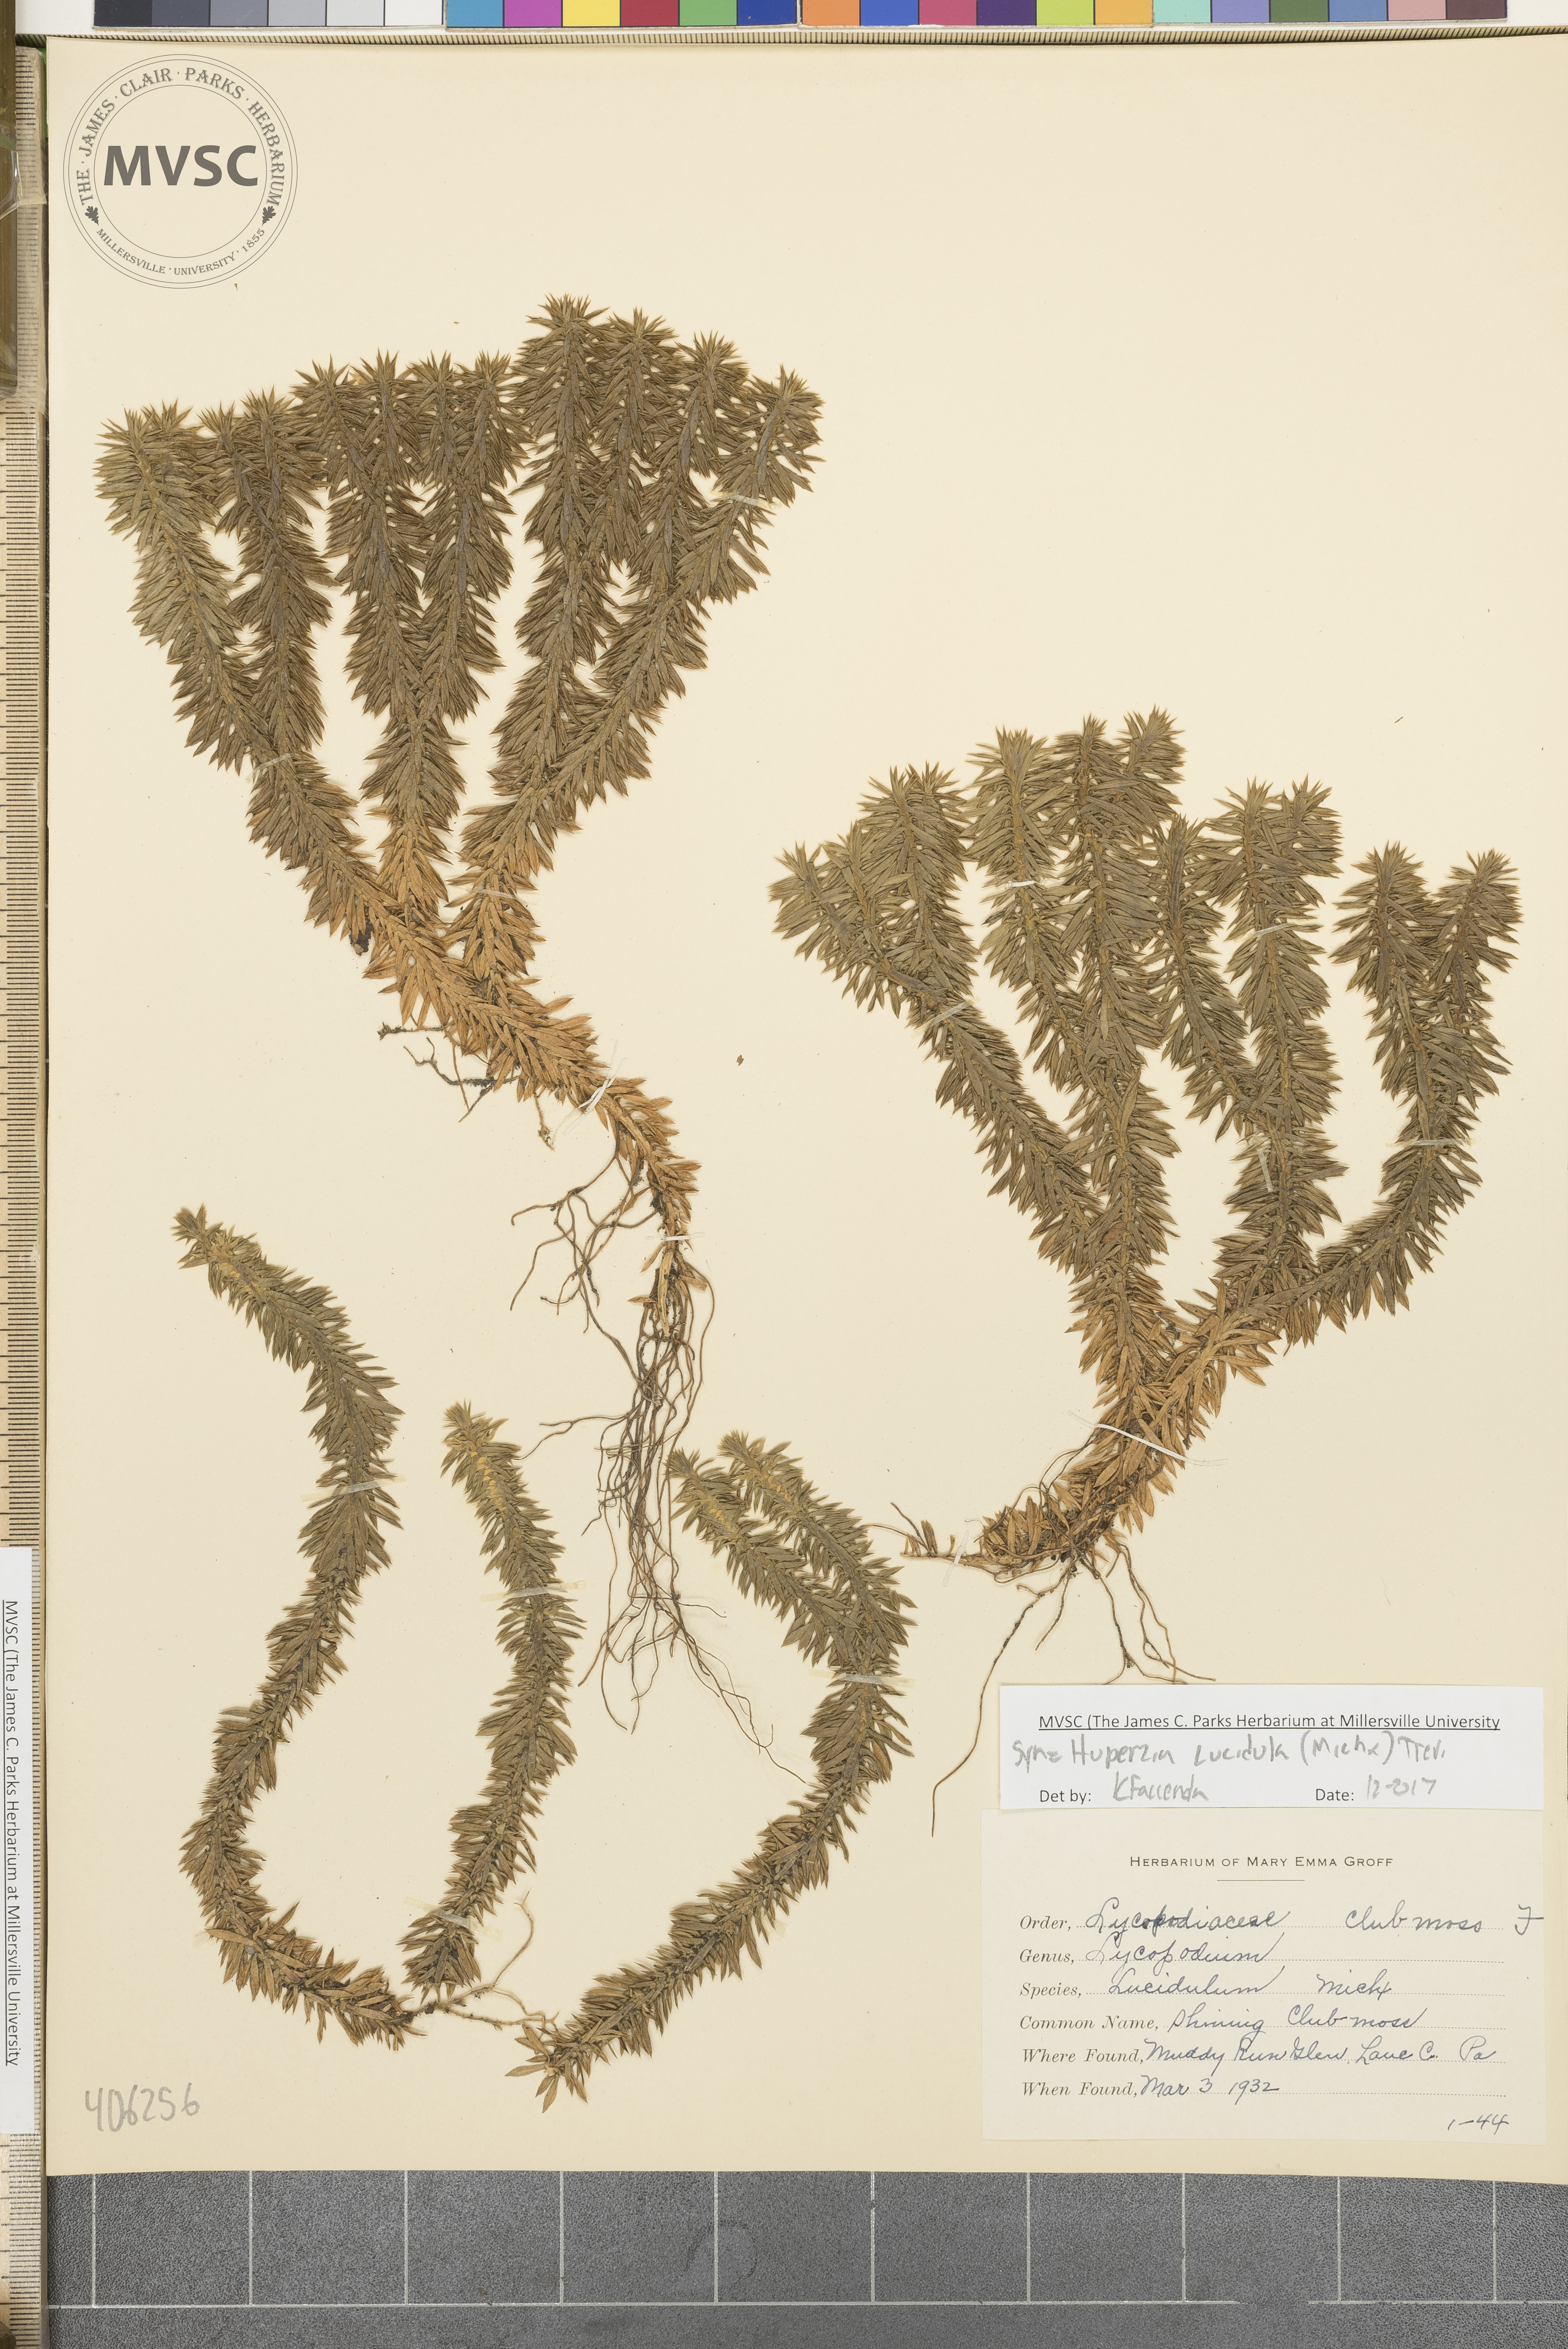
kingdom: Plantae
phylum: Tracheophyta
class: Lycopodiopsida
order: Lycopodiales
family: Lycopodiaceae
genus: Huperzia
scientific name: Huperzia lucidula
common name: Shining clubmoss
